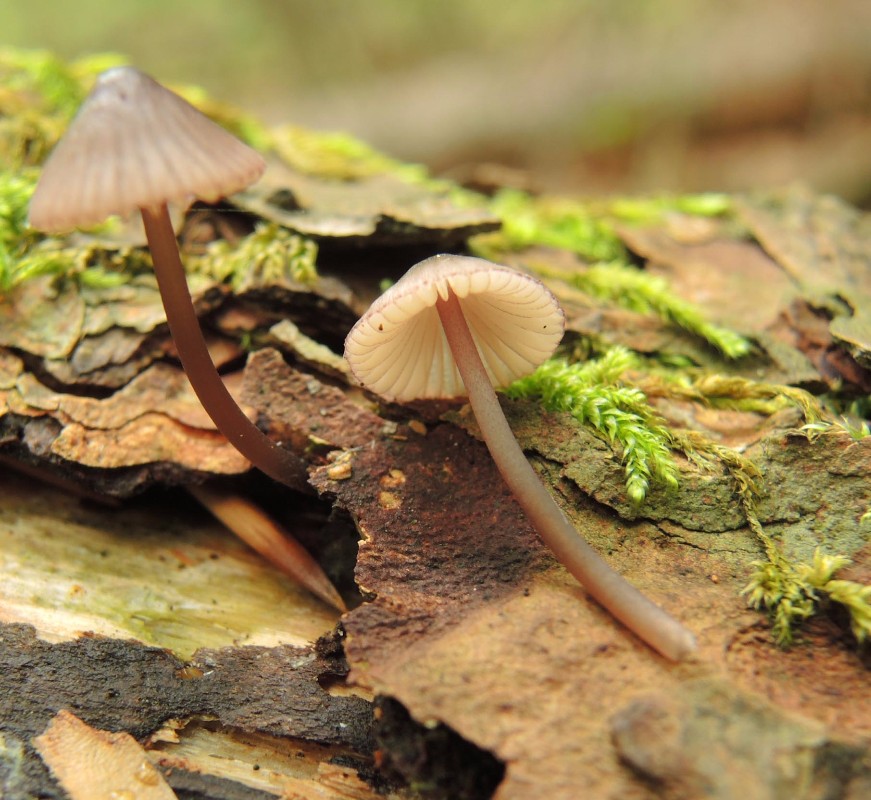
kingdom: Fungi
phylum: Basidiomycota
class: Agaricomycetes
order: Agaricales
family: Mycenaceae
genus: Mycena
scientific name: Mycena purpureofusca
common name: purpur-huesvamp
